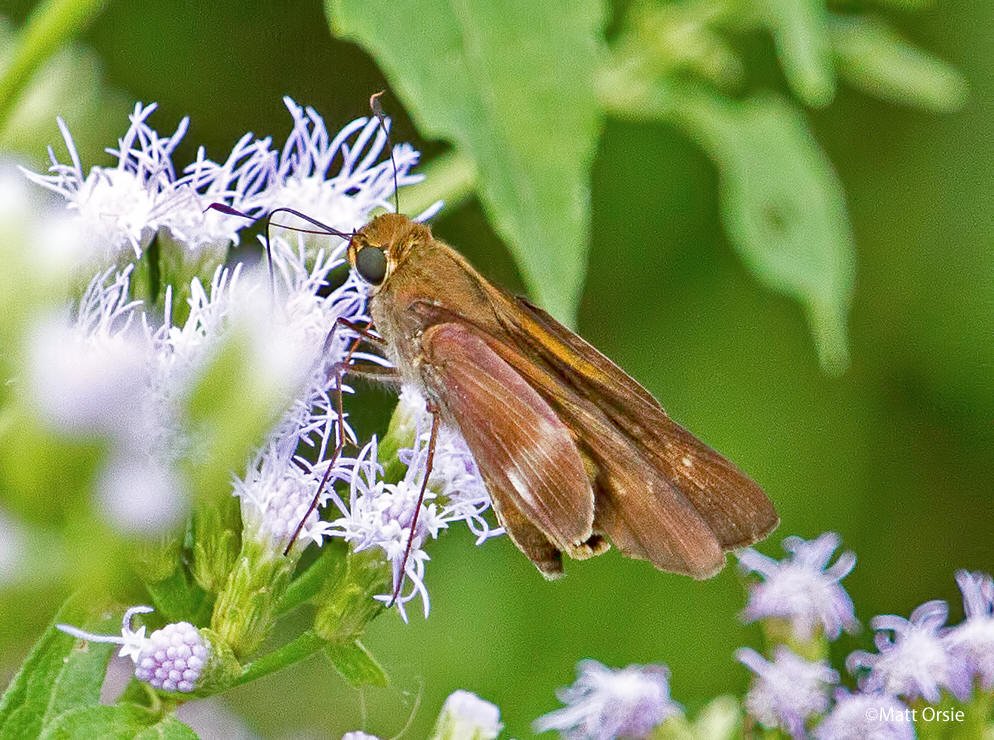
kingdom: Animalia
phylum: Arthropoda
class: Insecta
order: Lepidoptera
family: Hesperiidae
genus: Panoquina
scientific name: Panoquina fusina
